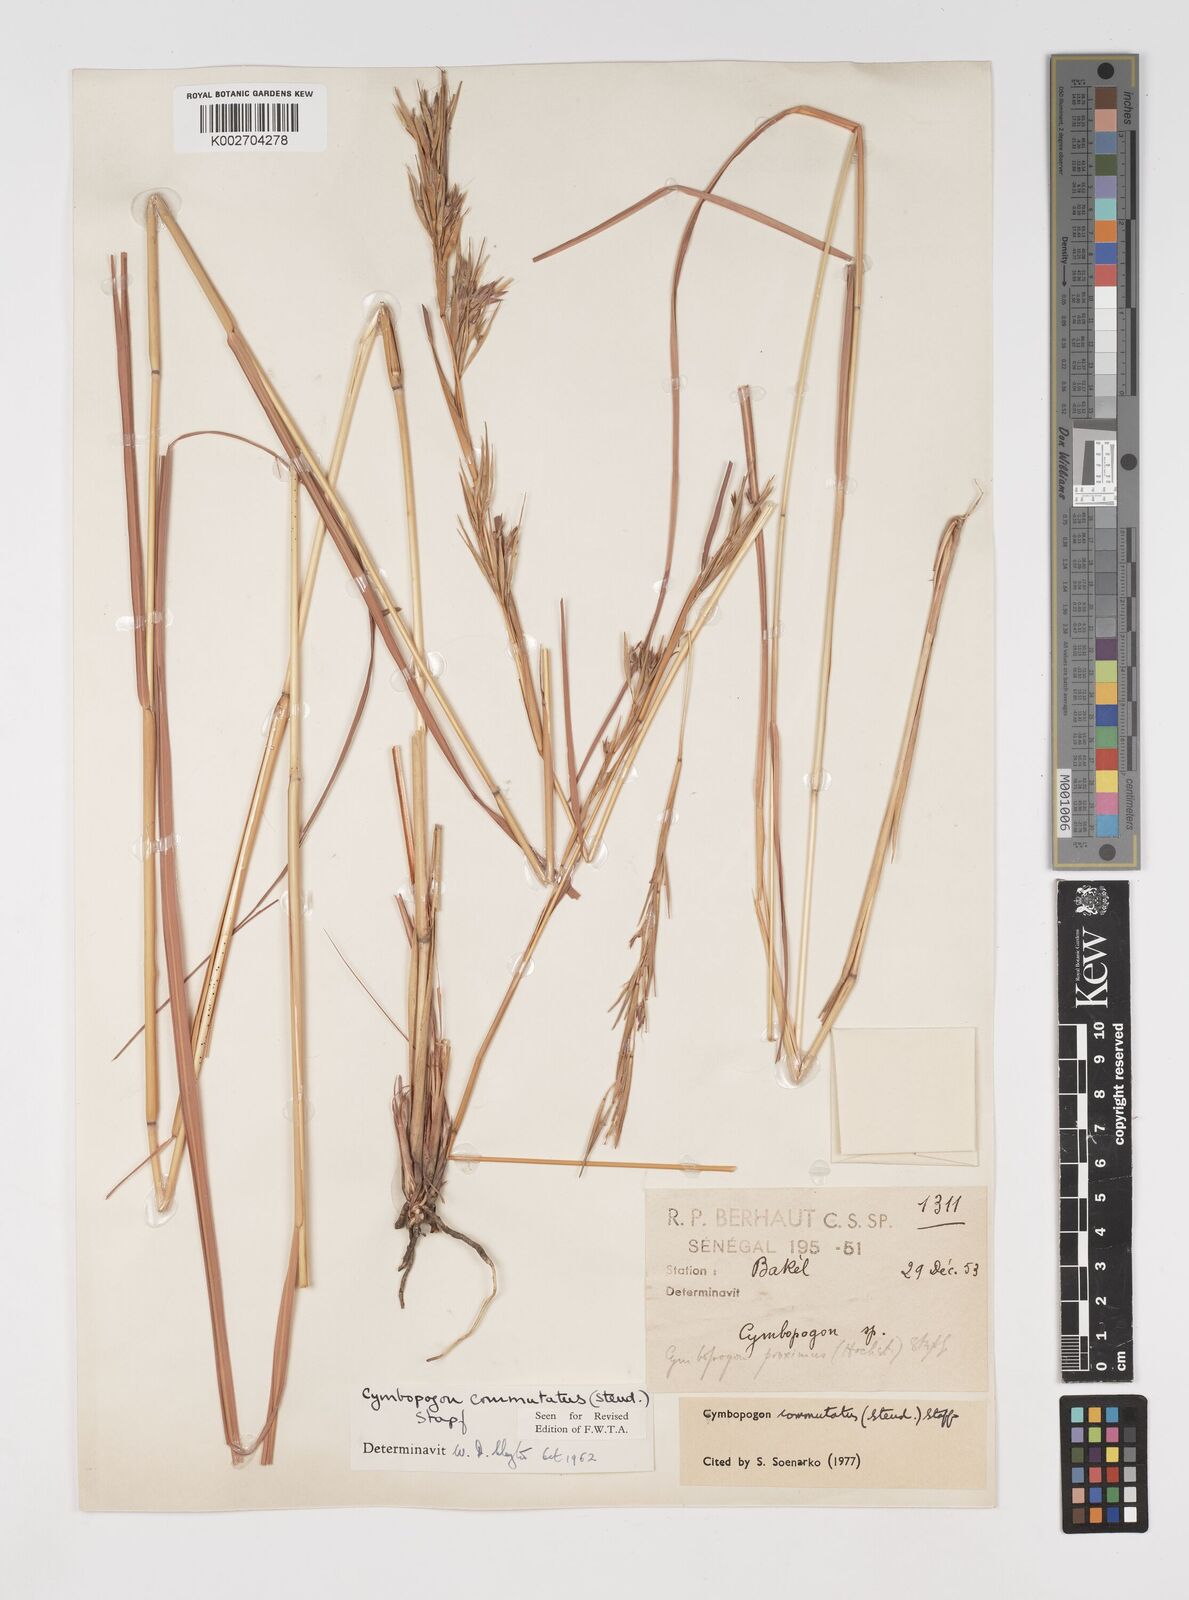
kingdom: Plantae
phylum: Tracheophyta
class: Liliopsida
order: Poales
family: Poaceae
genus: Cymbopogon
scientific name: Cymbopogon commutatus
